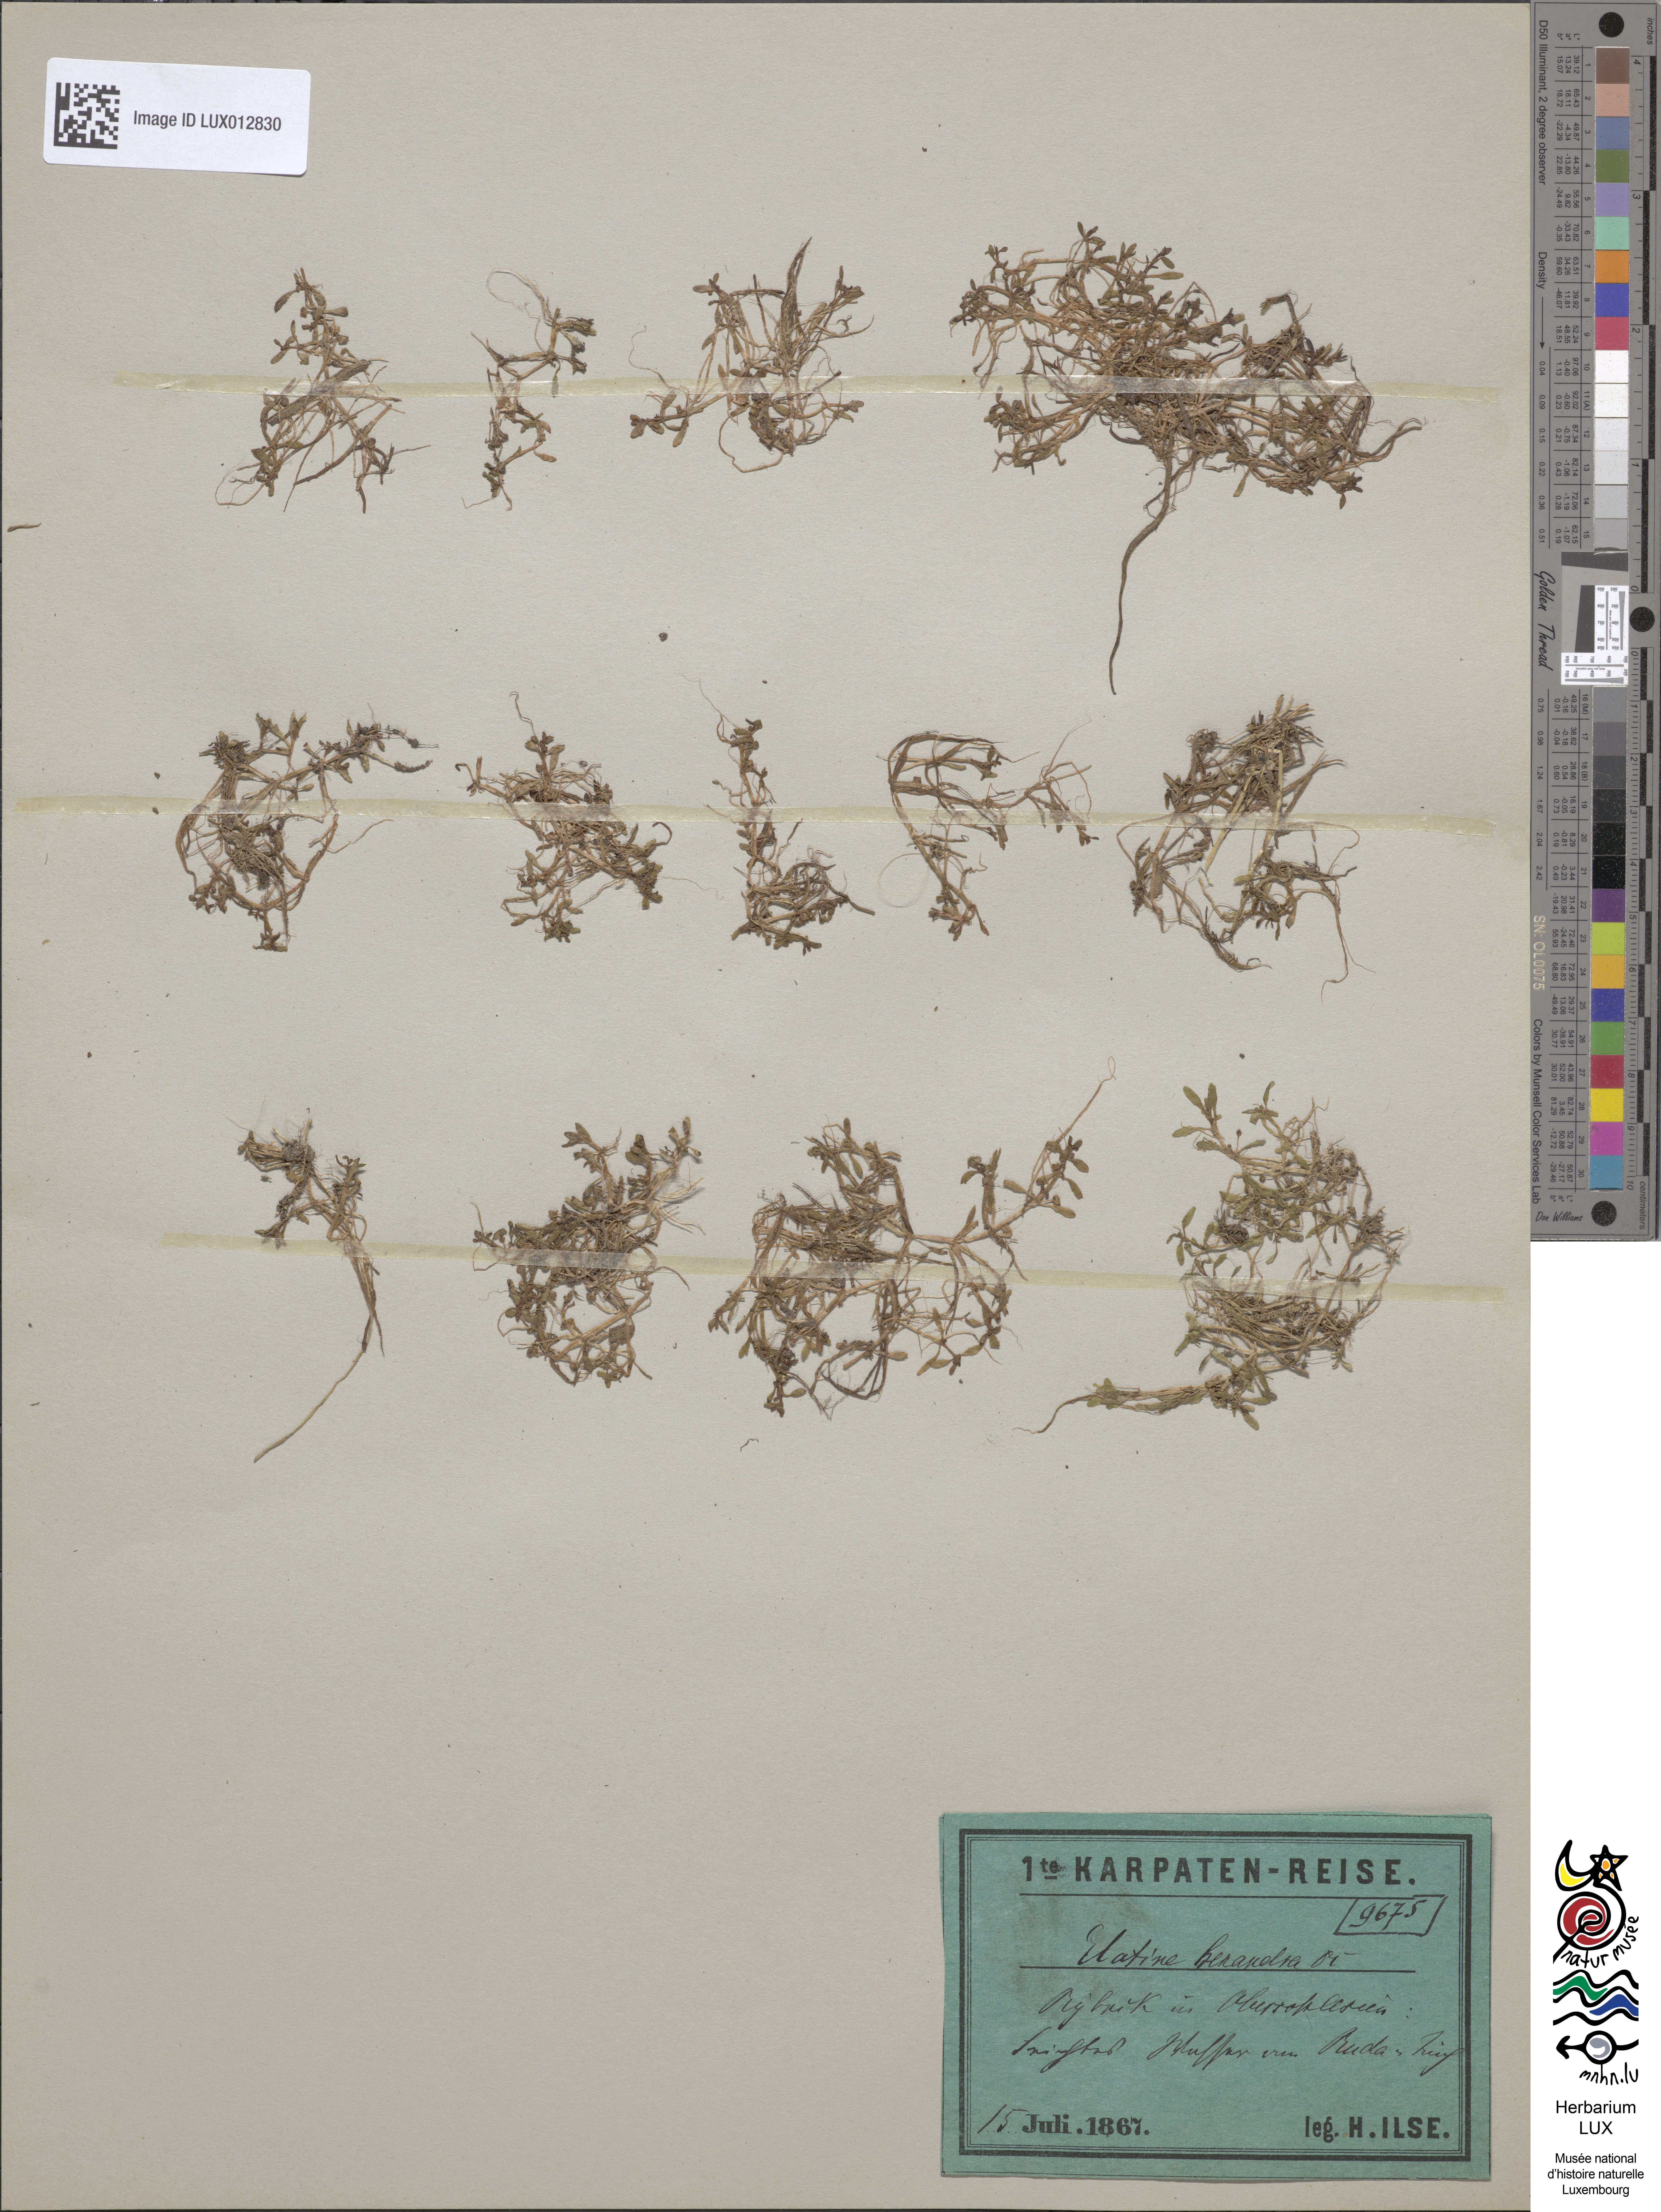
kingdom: Plantae
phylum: Tracheophyta
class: Magnoliopsida
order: Malpighiales
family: Elatinaceae
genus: Elatine
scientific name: Elatine hexandra
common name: Six-stamened waterwort
